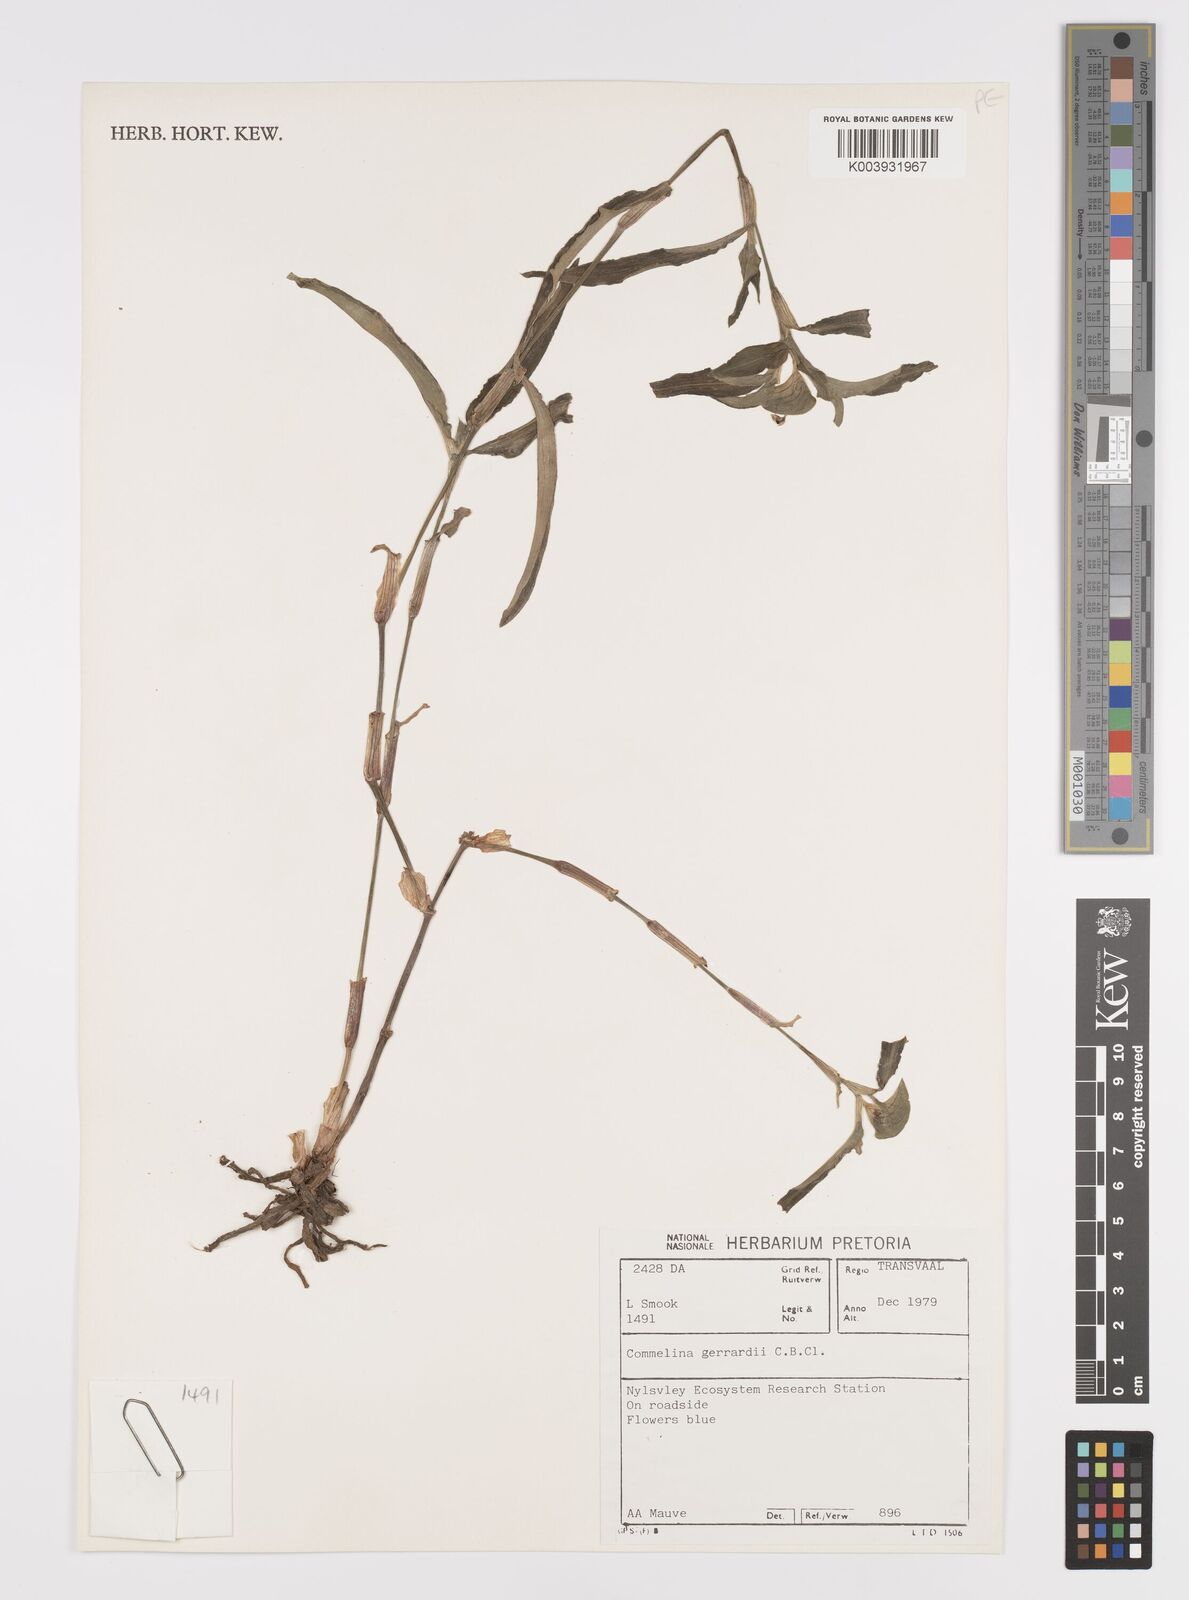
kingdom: Plantae
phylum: Tracheophyta
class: Liliopsida
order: Commelinales
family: Commelinaceae
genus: Commelina
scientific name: Commelina erecta
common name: Blousel blommetjie
